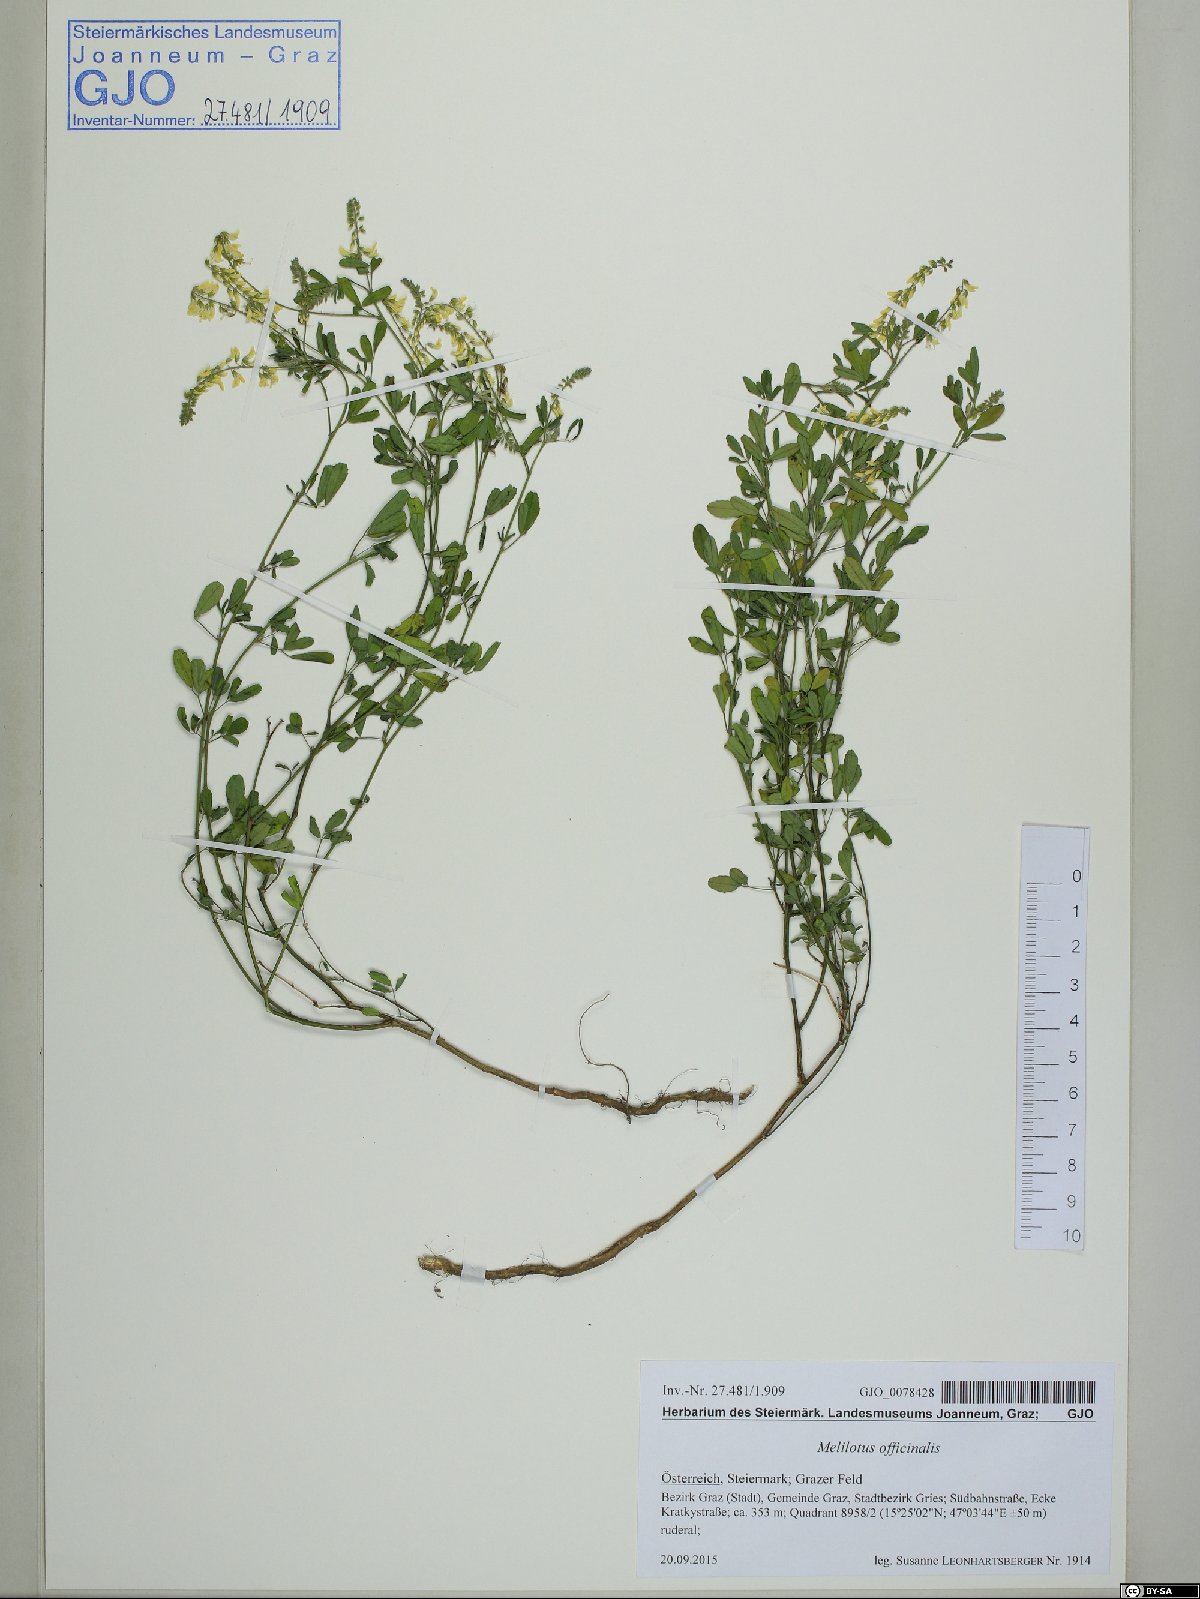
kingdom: Plantae
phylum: Tracheophyta
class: Magnoliopsida
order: Fabales
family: Fabaceae
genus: Melilotus
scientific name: Melilotus officinalis
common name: Sweetclover
